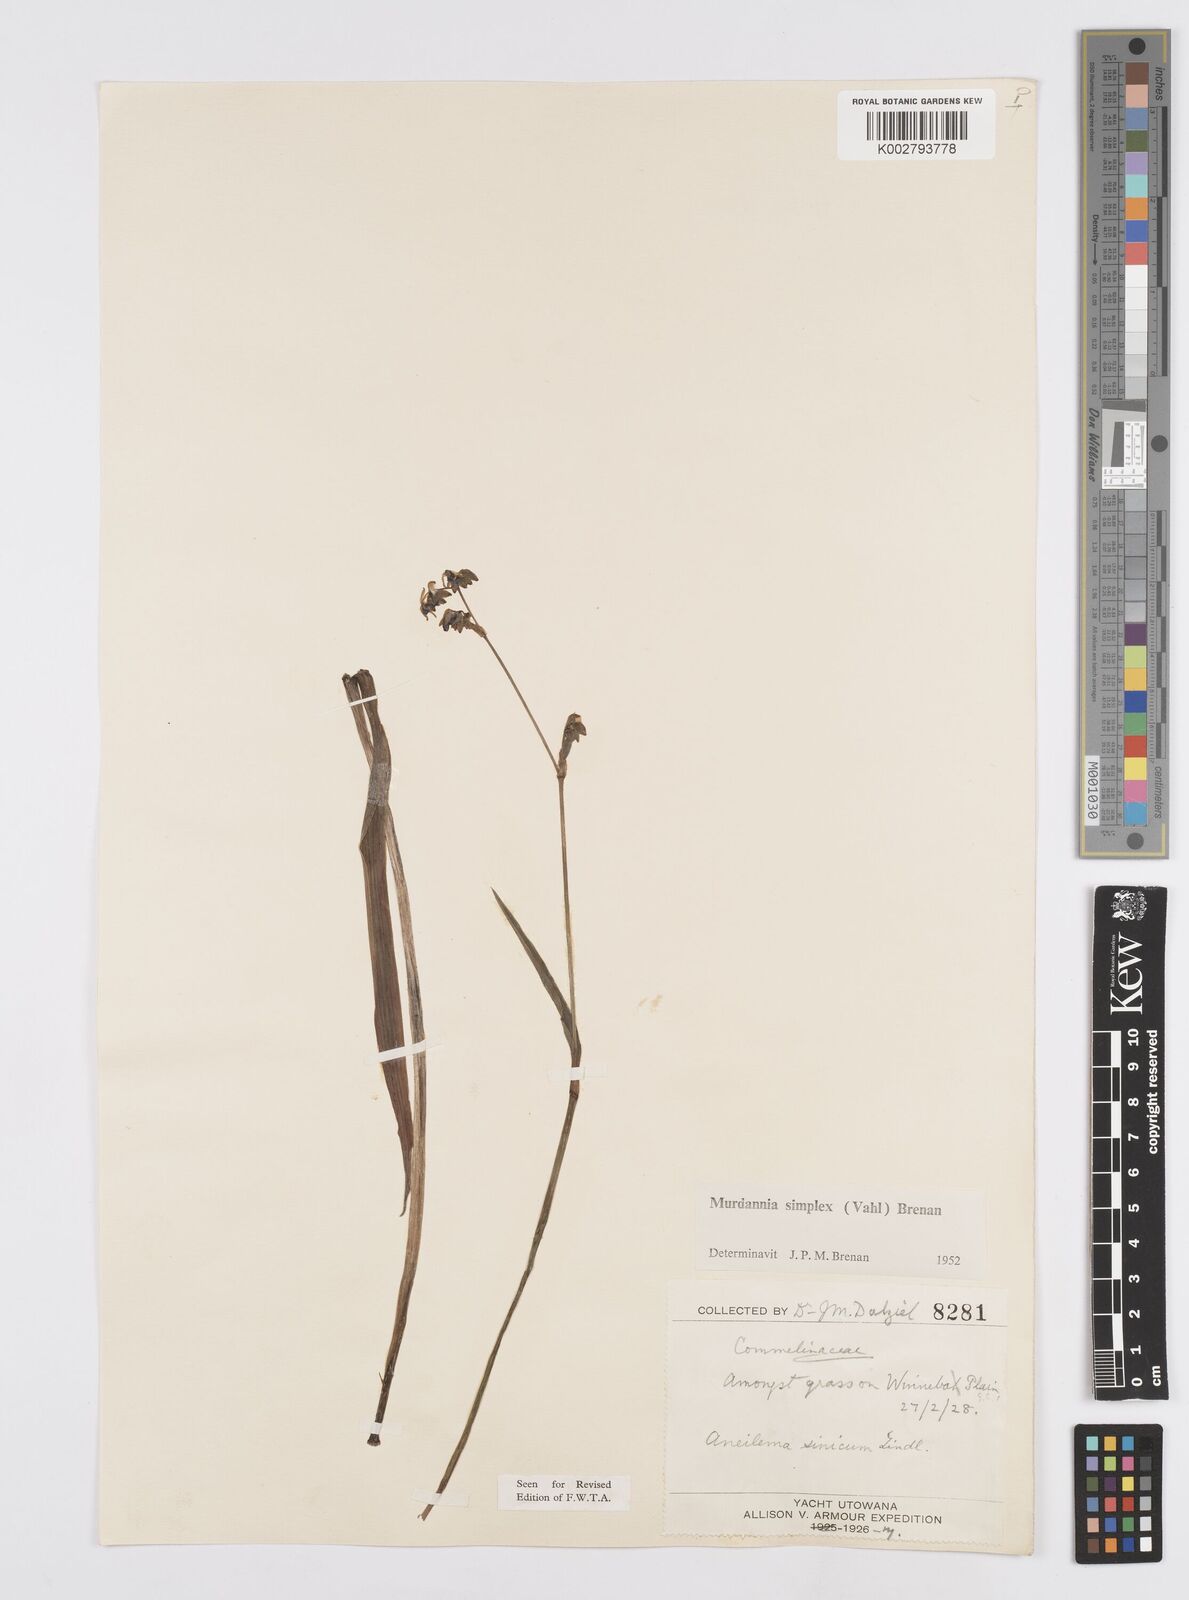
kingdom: Plantae
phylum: Tracheophyta
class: Liliopsida
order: Commelinales
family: Commelinaceae
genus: Murdannia
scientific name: Murdannia simplex
